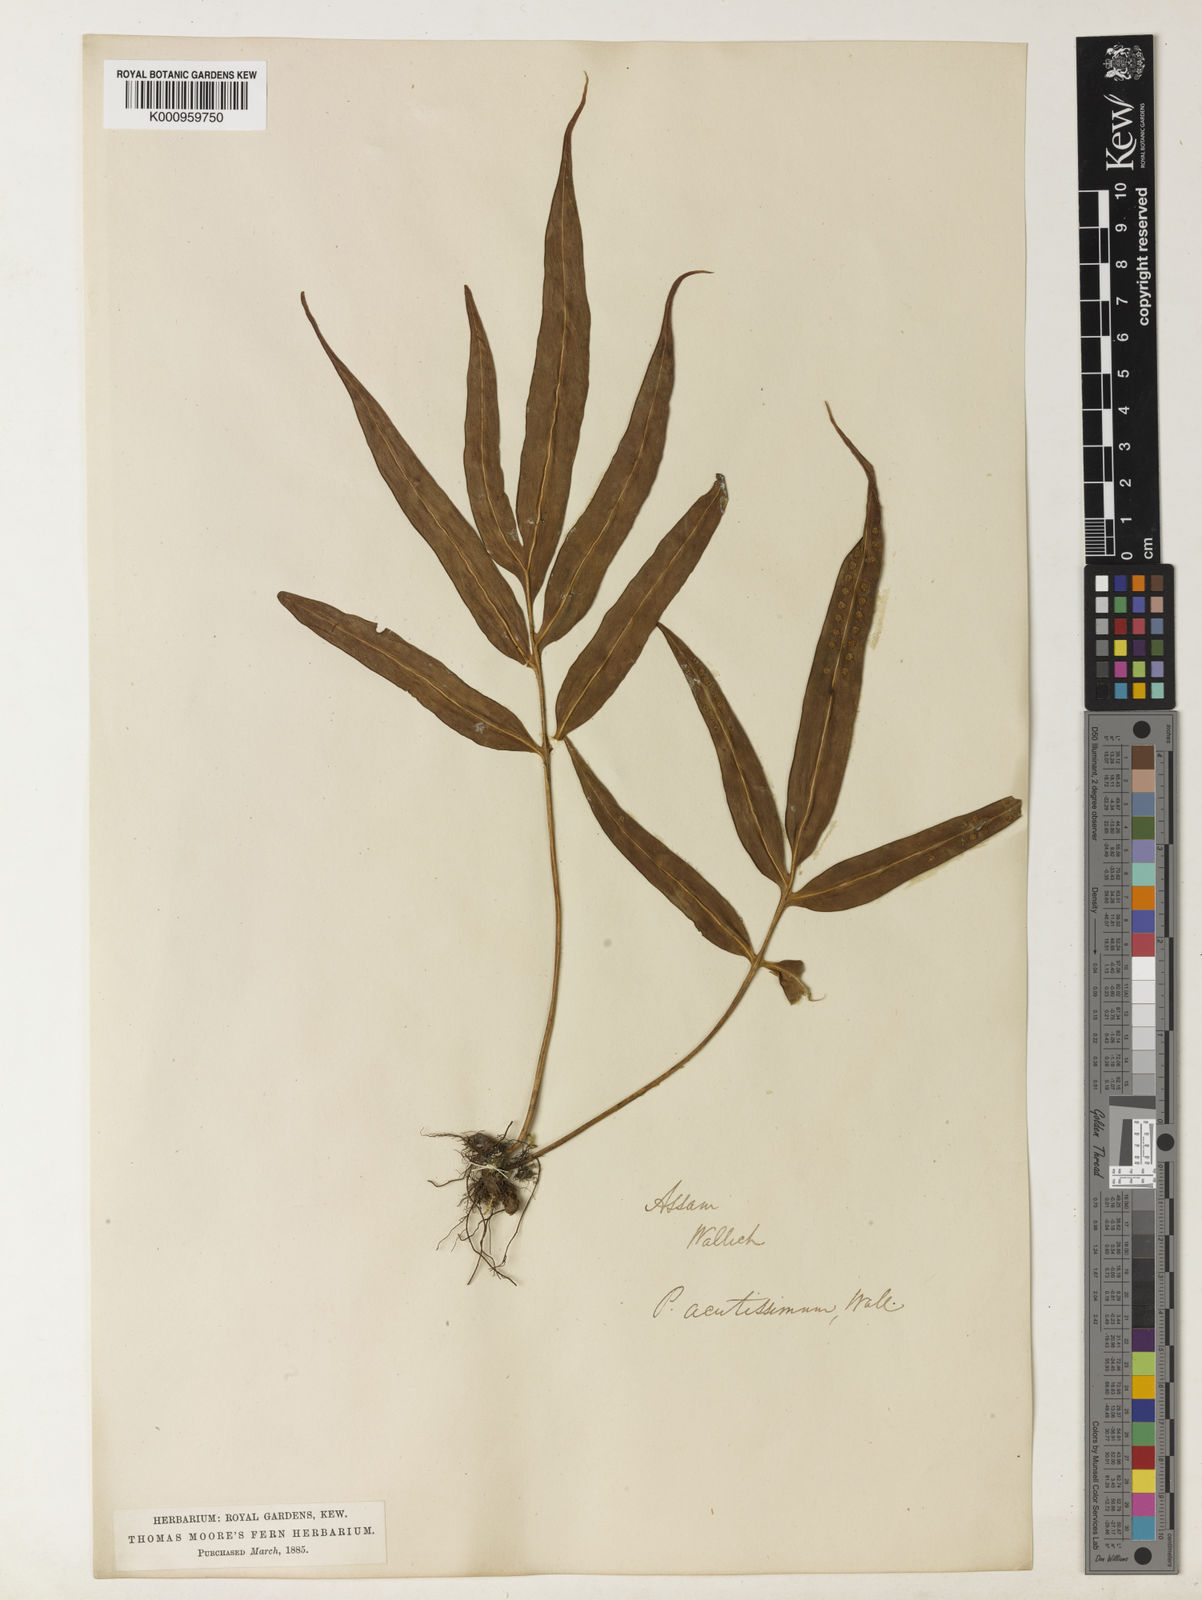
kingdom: Plantae
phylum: Tracheophyta
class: Polypodiopsida
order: Polypodiales
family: Polypodiaceae
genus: Microsorum
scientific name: Microsorum cuspidatum
